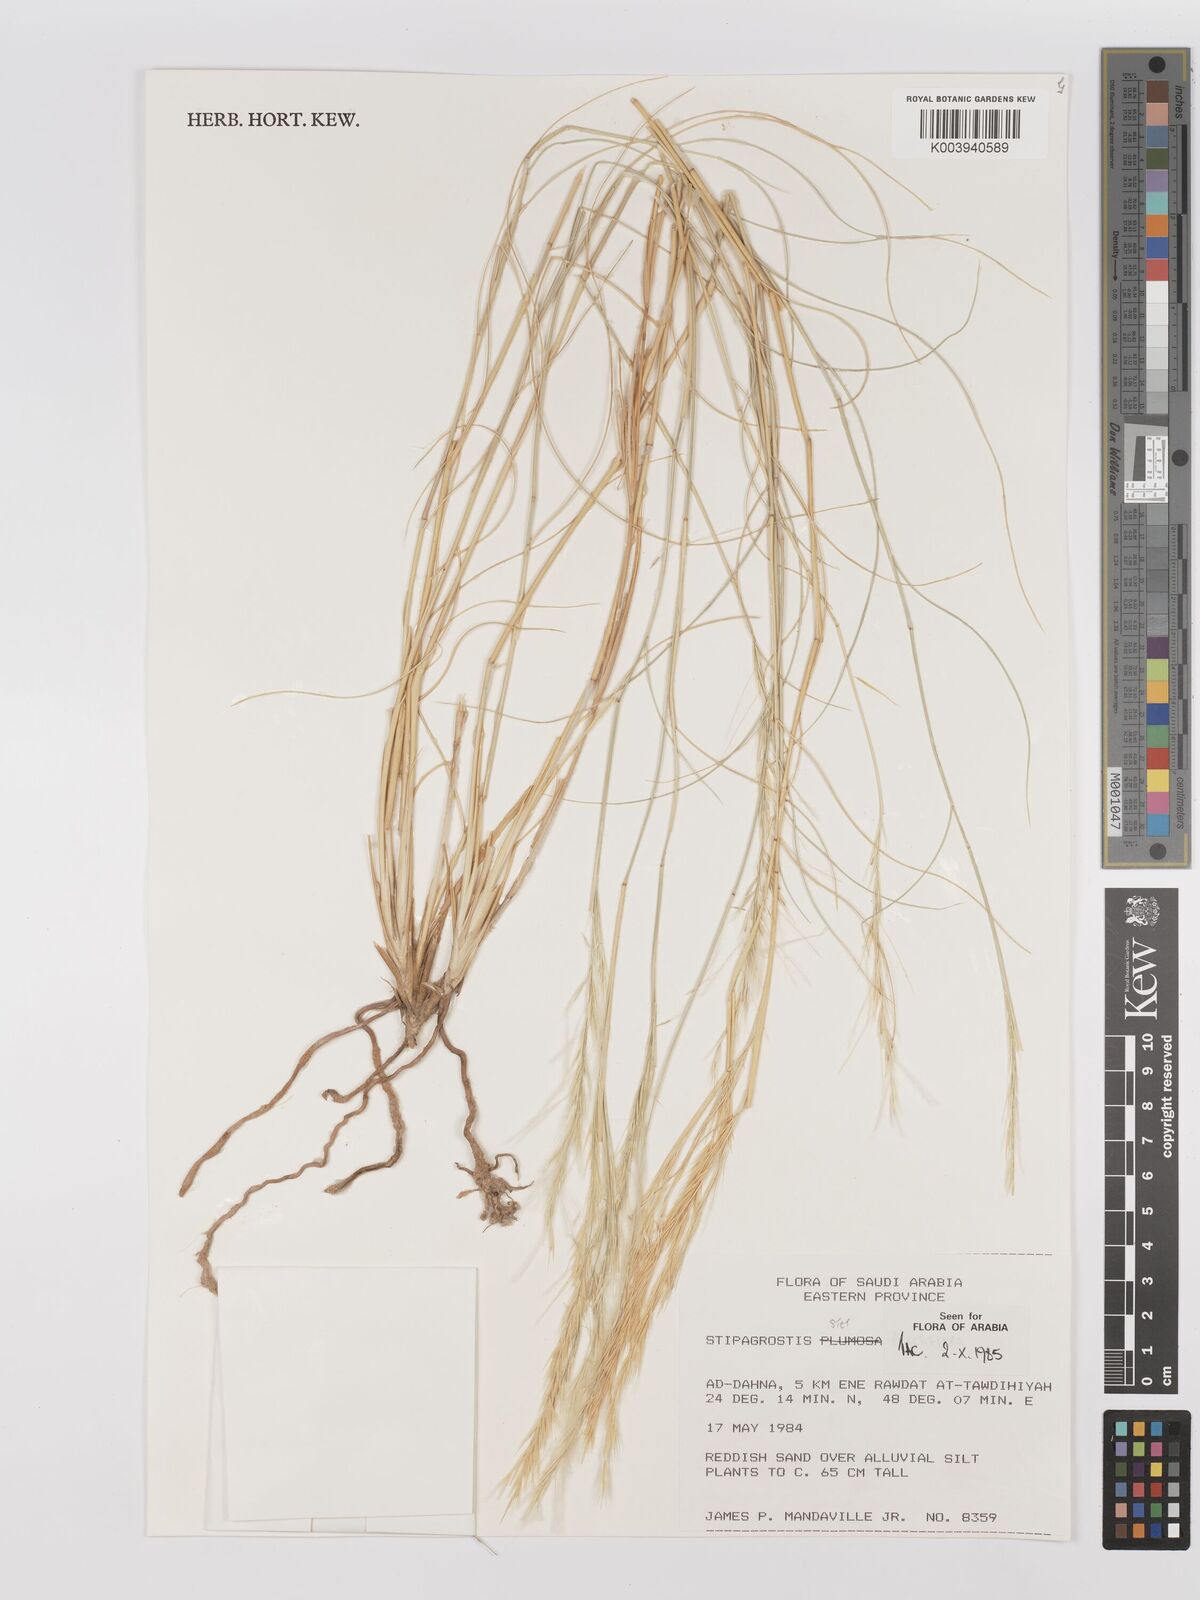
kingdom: Plantae
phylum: Tracheophyta
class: Liliopsida
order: Poales
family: Poaceae
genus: Stipagrostis
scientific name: Stipagrostis plumosa
